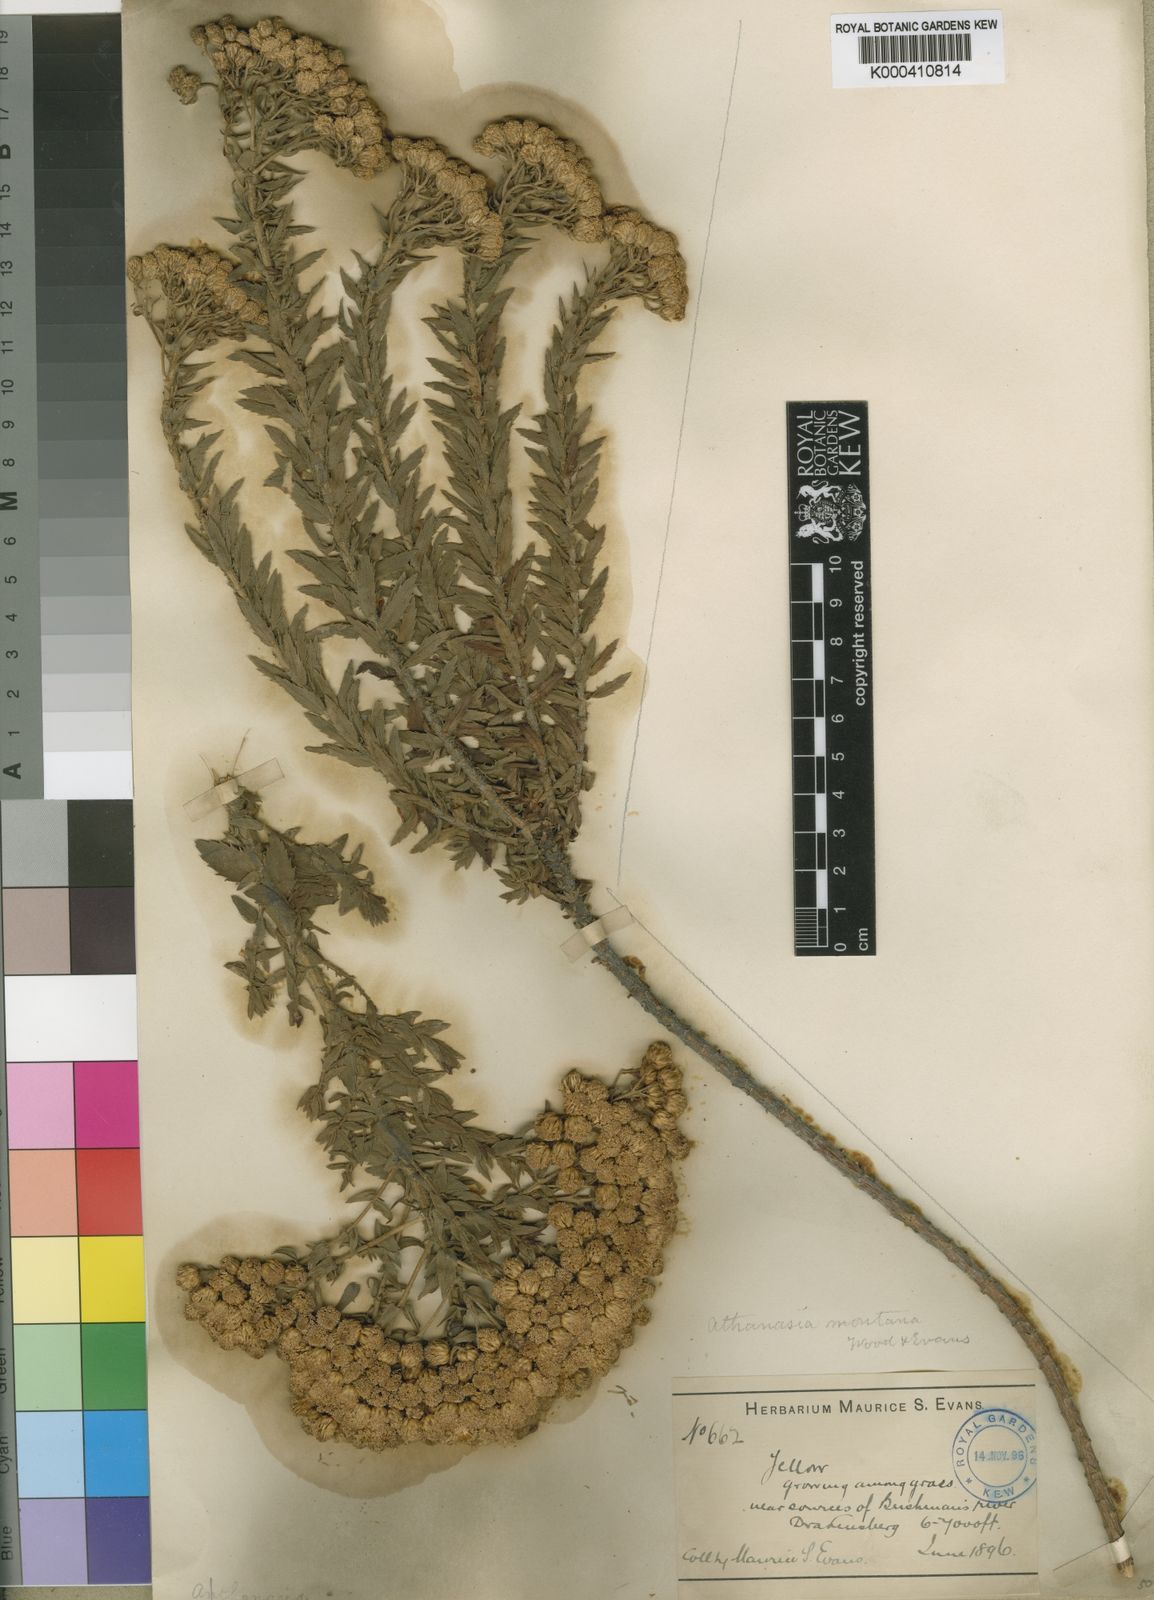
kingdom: Plantae
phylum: Tracheophyta
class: Magnoliopsida
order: Asterales
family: Asteraceae
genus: Inulanthera
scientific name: Inulanthera
